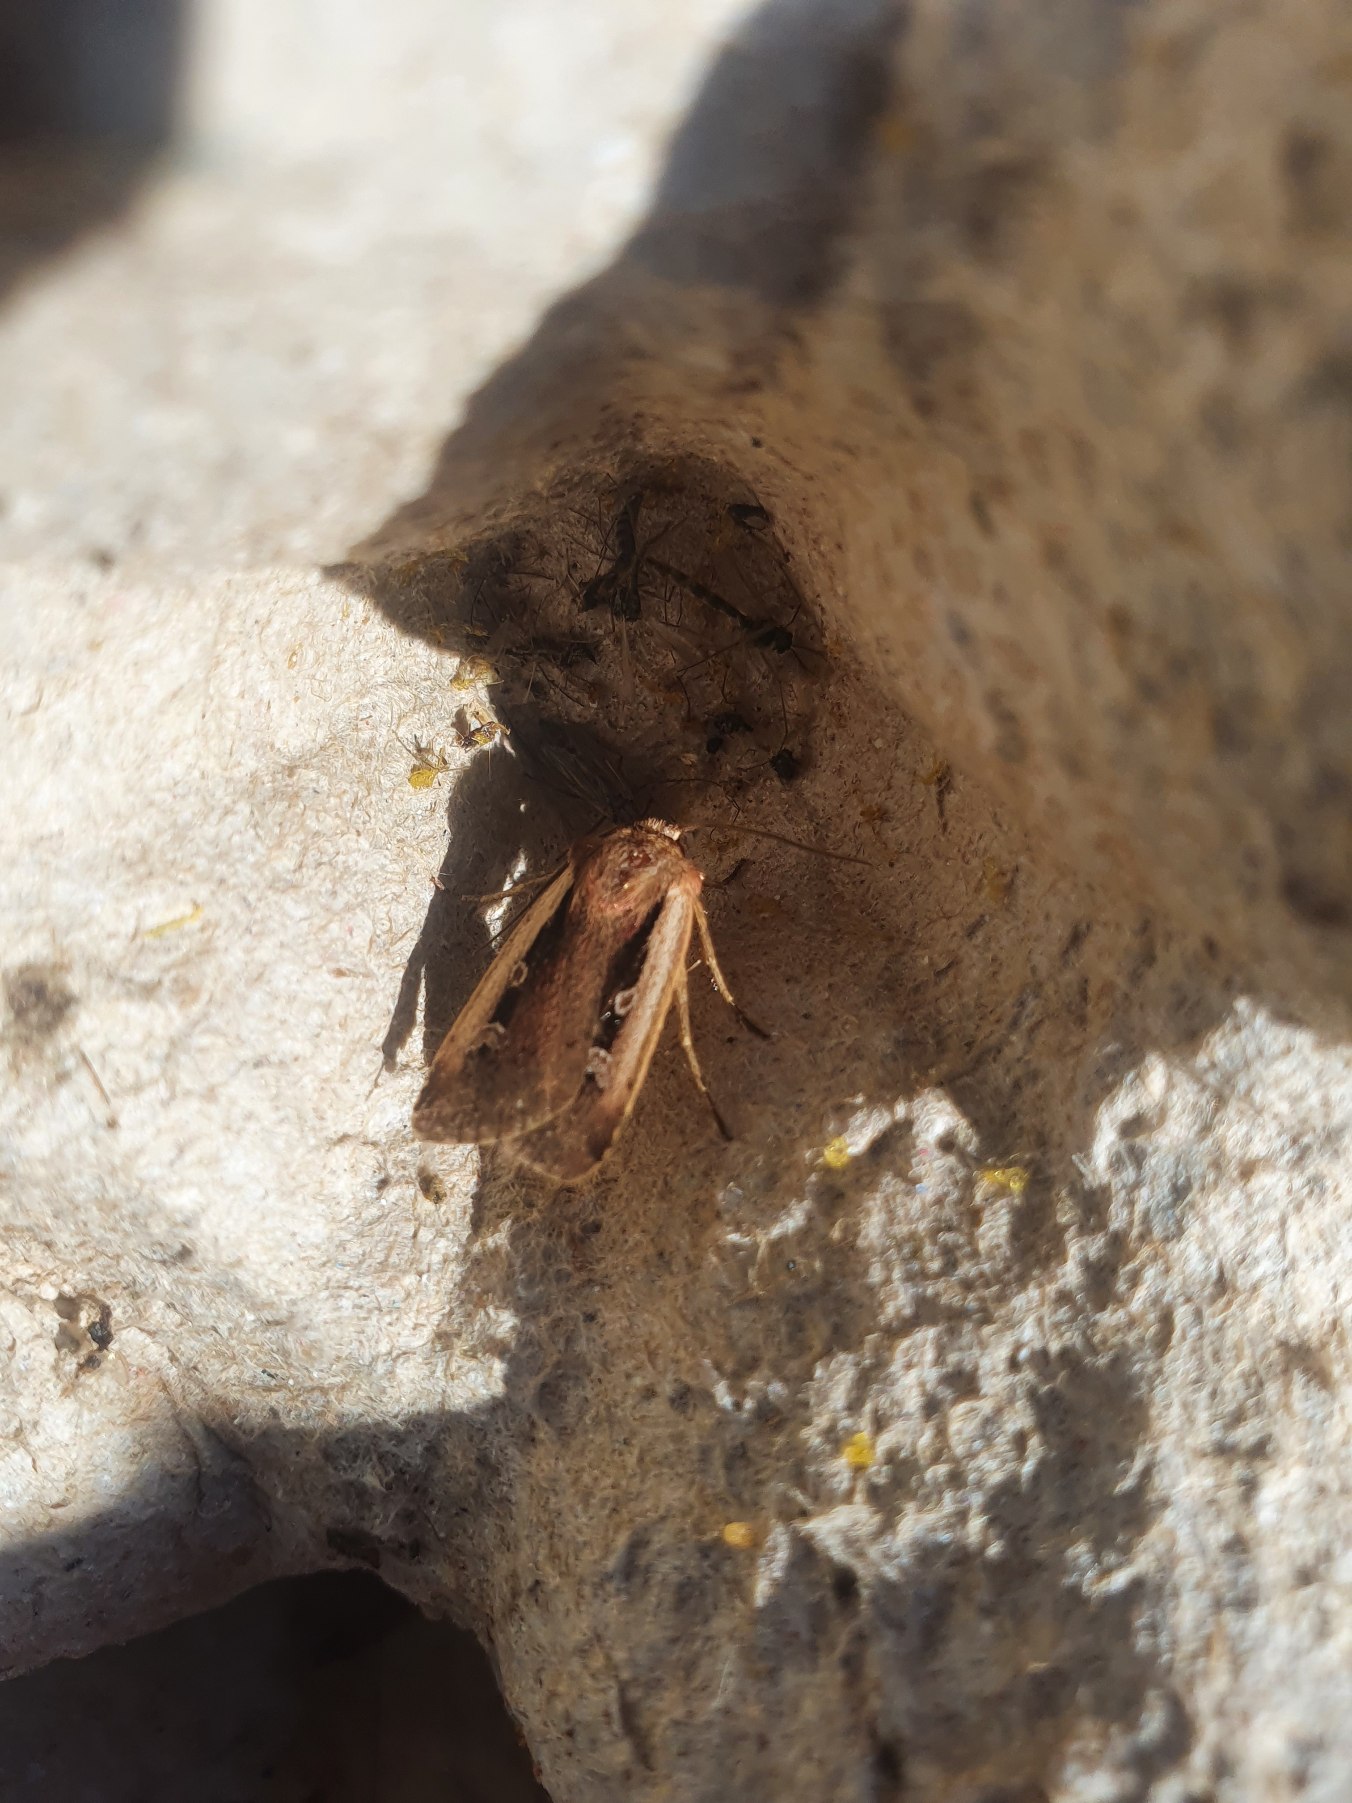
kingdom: Animalia
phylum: Arthropoda
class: Insecta
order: Lepidoptera
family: Noctuidae
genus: Ochropleura
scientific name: Ochropleura plecta
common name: Hvidrandet jordugle
